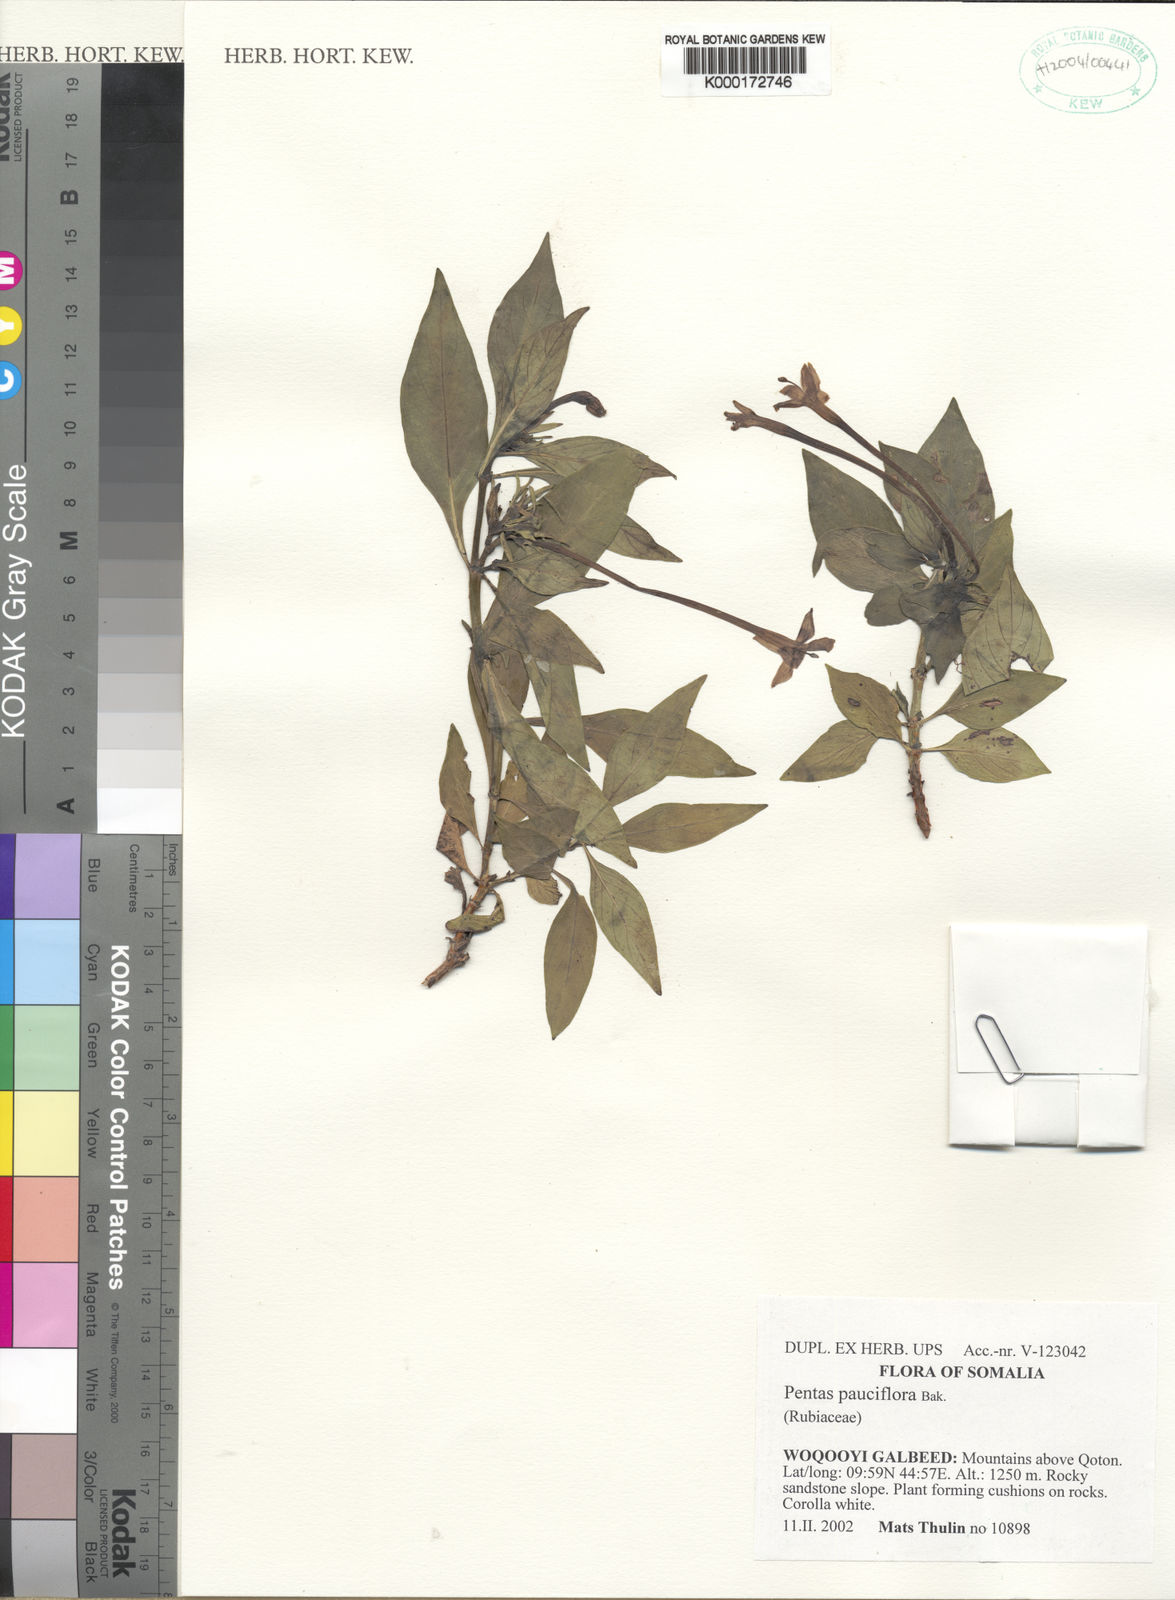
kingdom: Plantae
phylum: Tracheophyta
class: Magnoliopsida
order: Gentianales
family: Rubiaceae
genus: Pentas
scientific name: Pentas pauciflora
